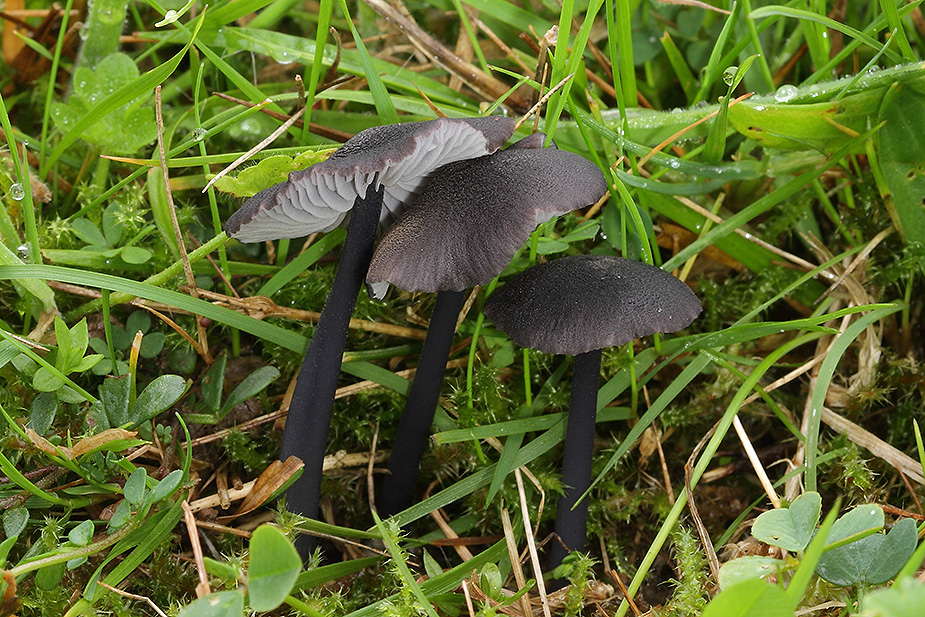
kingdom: Fungi
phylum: Basidiomycota
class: Agaricomycetes
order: Agaricales
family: Entolomataceae
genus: Entoloma
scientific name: Entoloma
